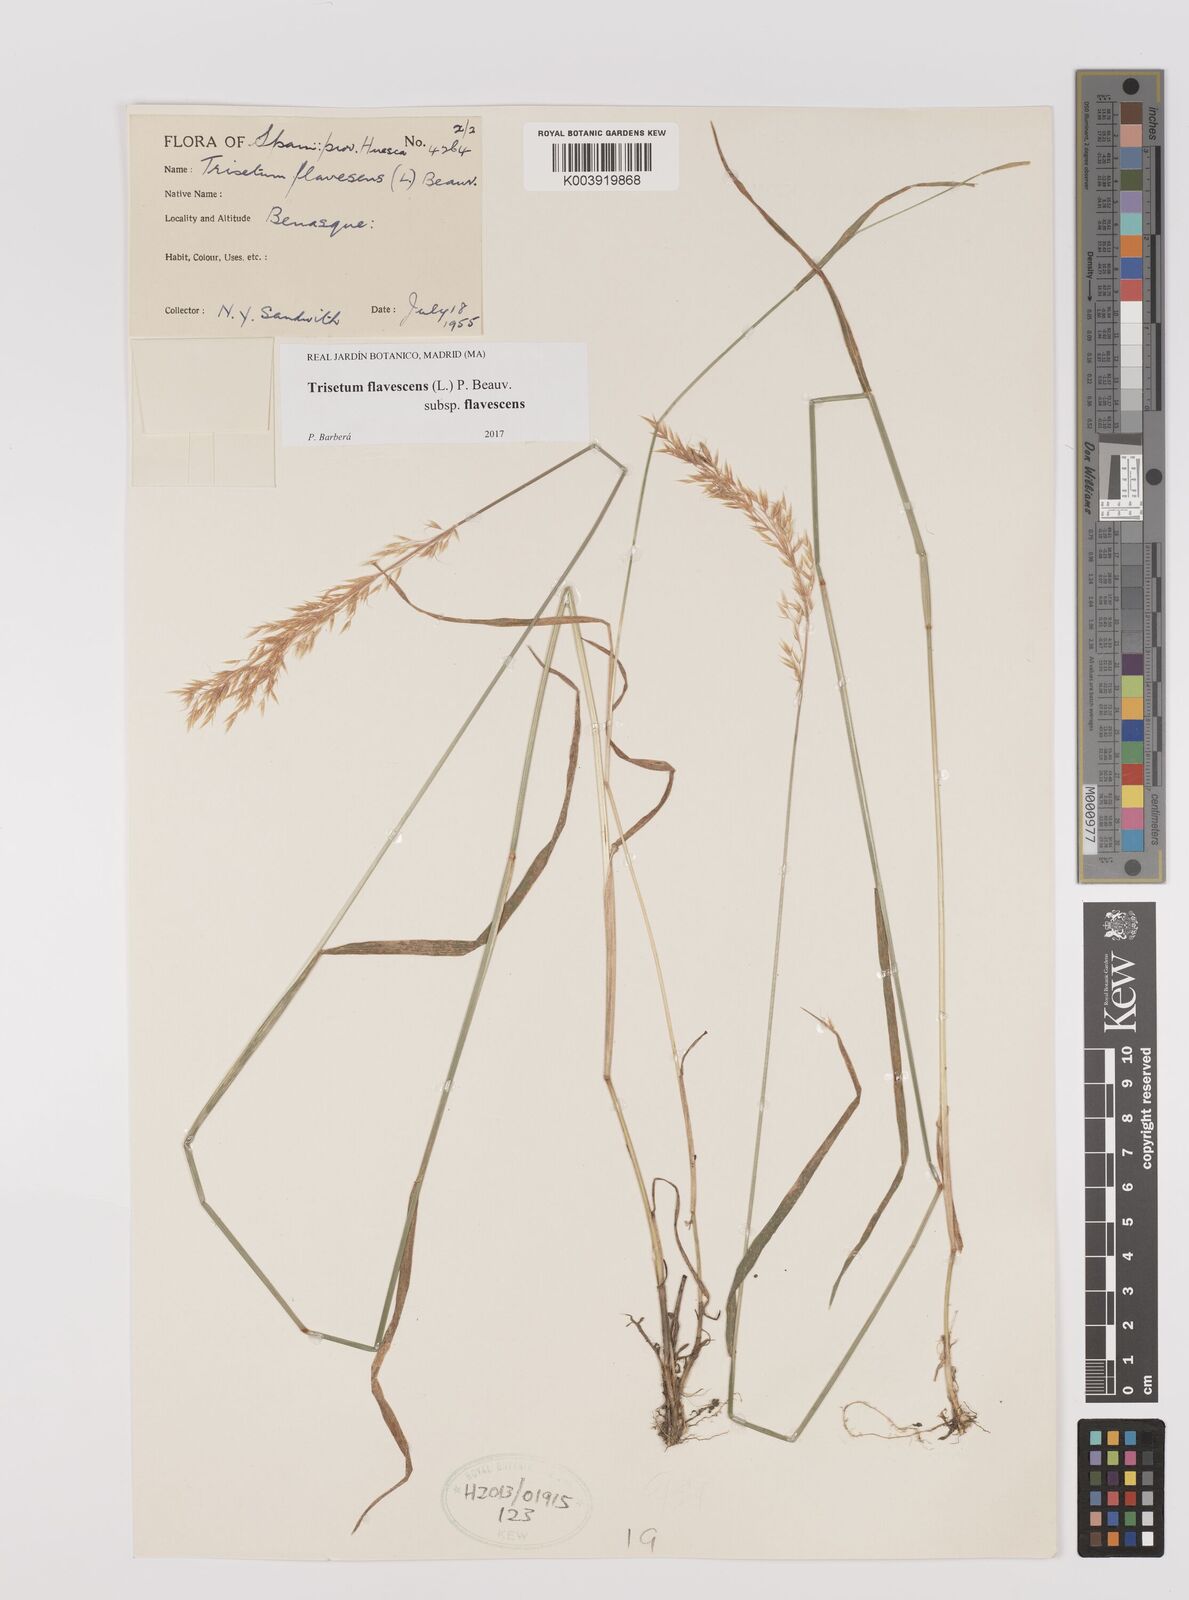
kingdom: Plantae
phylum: Tracheophyta
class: Liliopsida
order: Poales
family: Poaceae
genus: Trisetum
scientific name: Trisetum flavescens
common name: Yellow oat-grass
